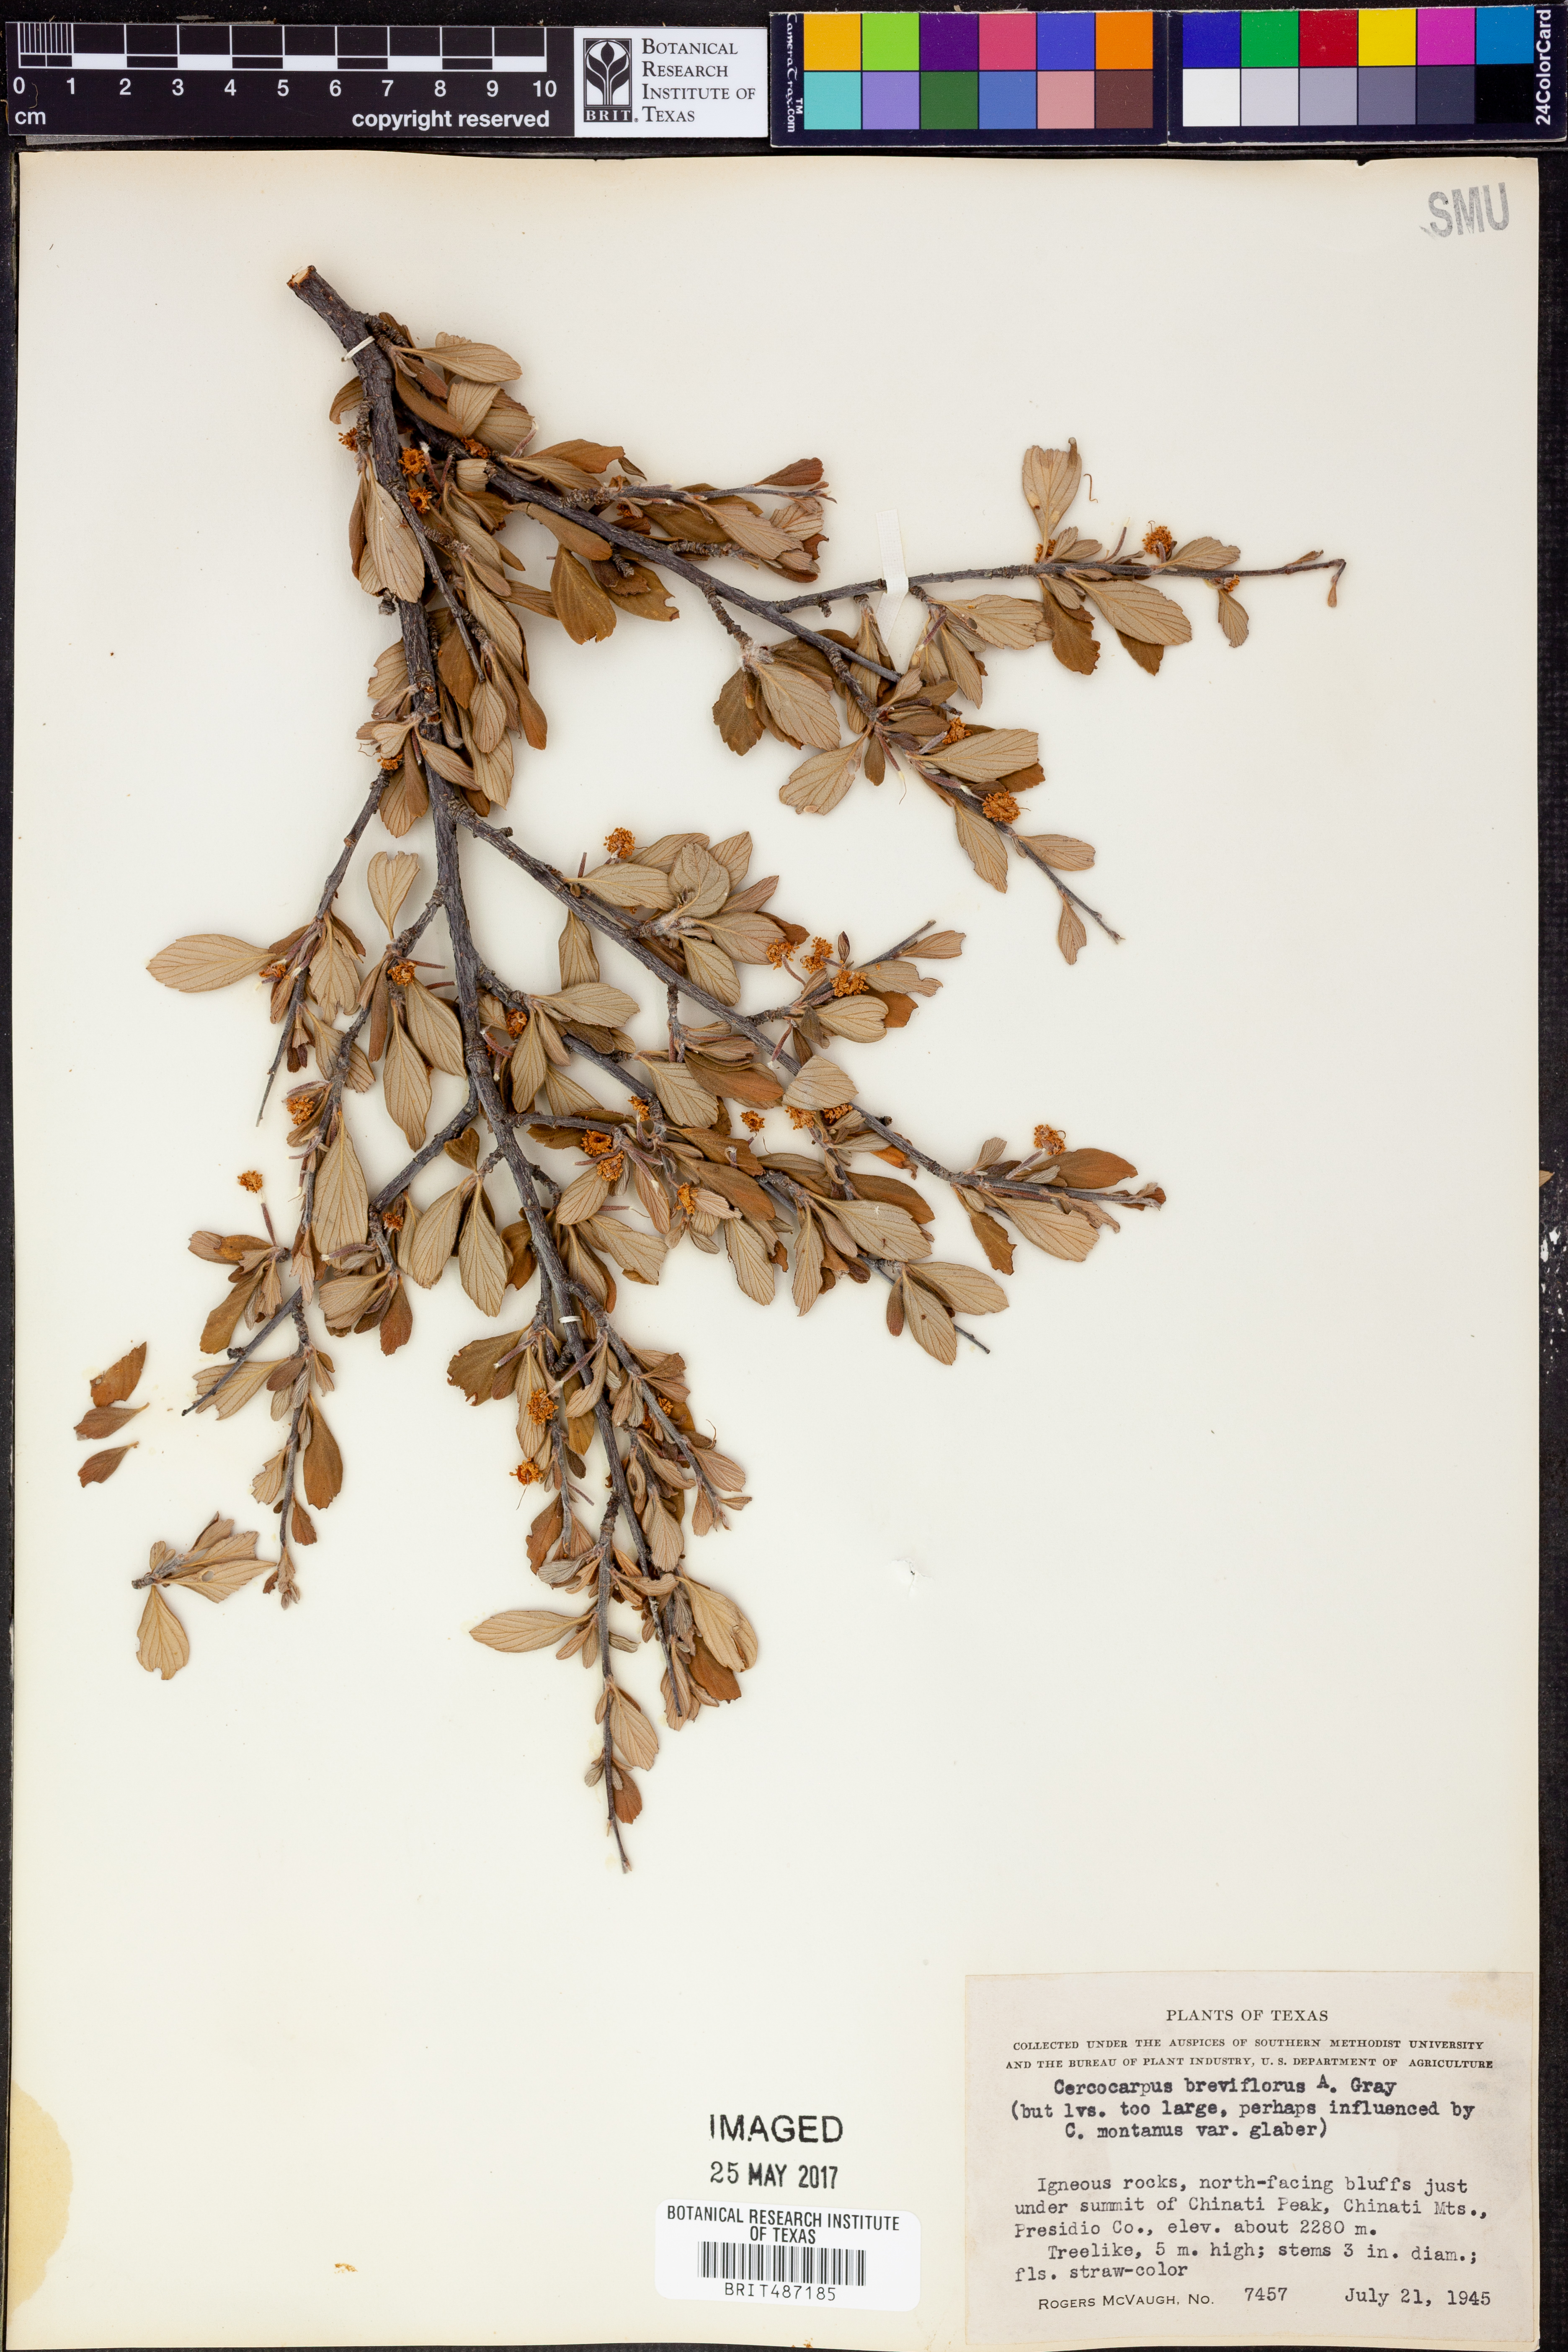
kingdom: Plantae
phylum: Tracheophyta
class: Magnoliopsida
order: Rosales
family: Rosaceae
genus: Cercocarpus
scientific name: Cercocarpus breviflorus
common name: Wright's mountain-mahogany
